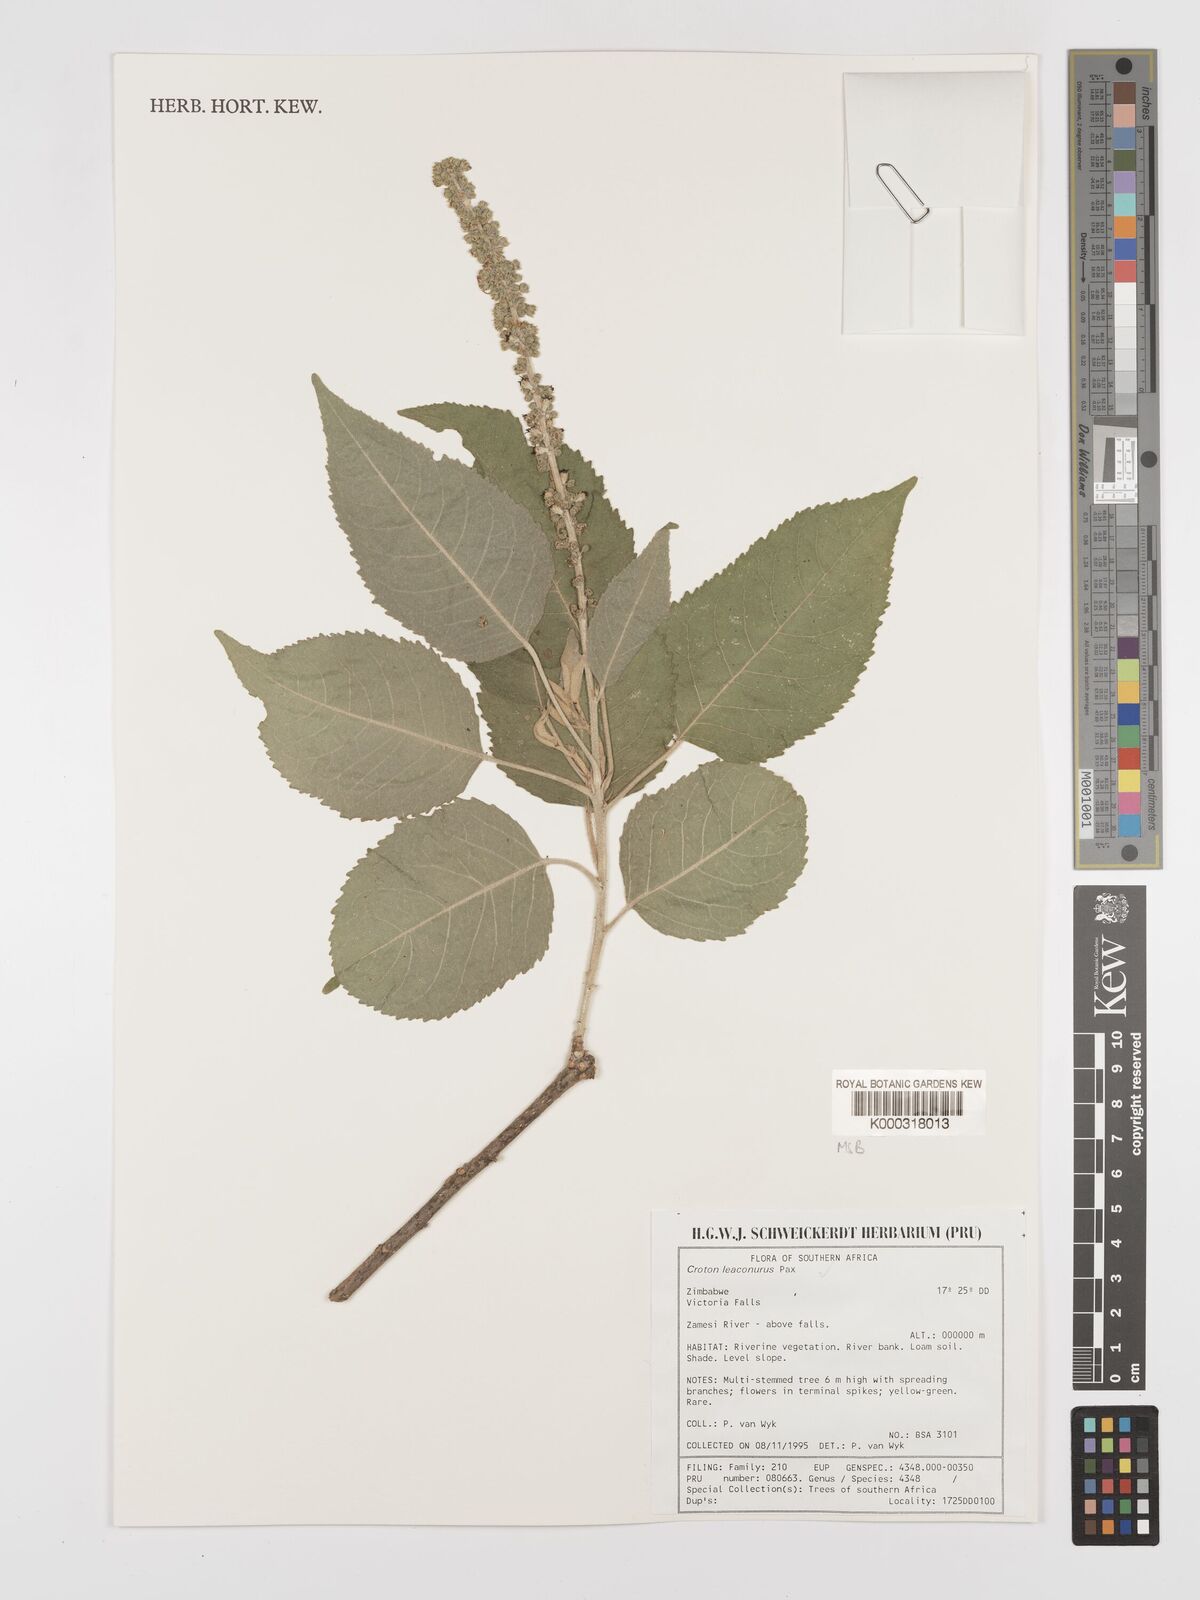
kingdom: Plantae
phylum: Tracheophyta
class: Magnoliopsida
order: Malpighiales
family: Euphorbiaceae
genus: Croton
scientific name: Croton leuconeurus
